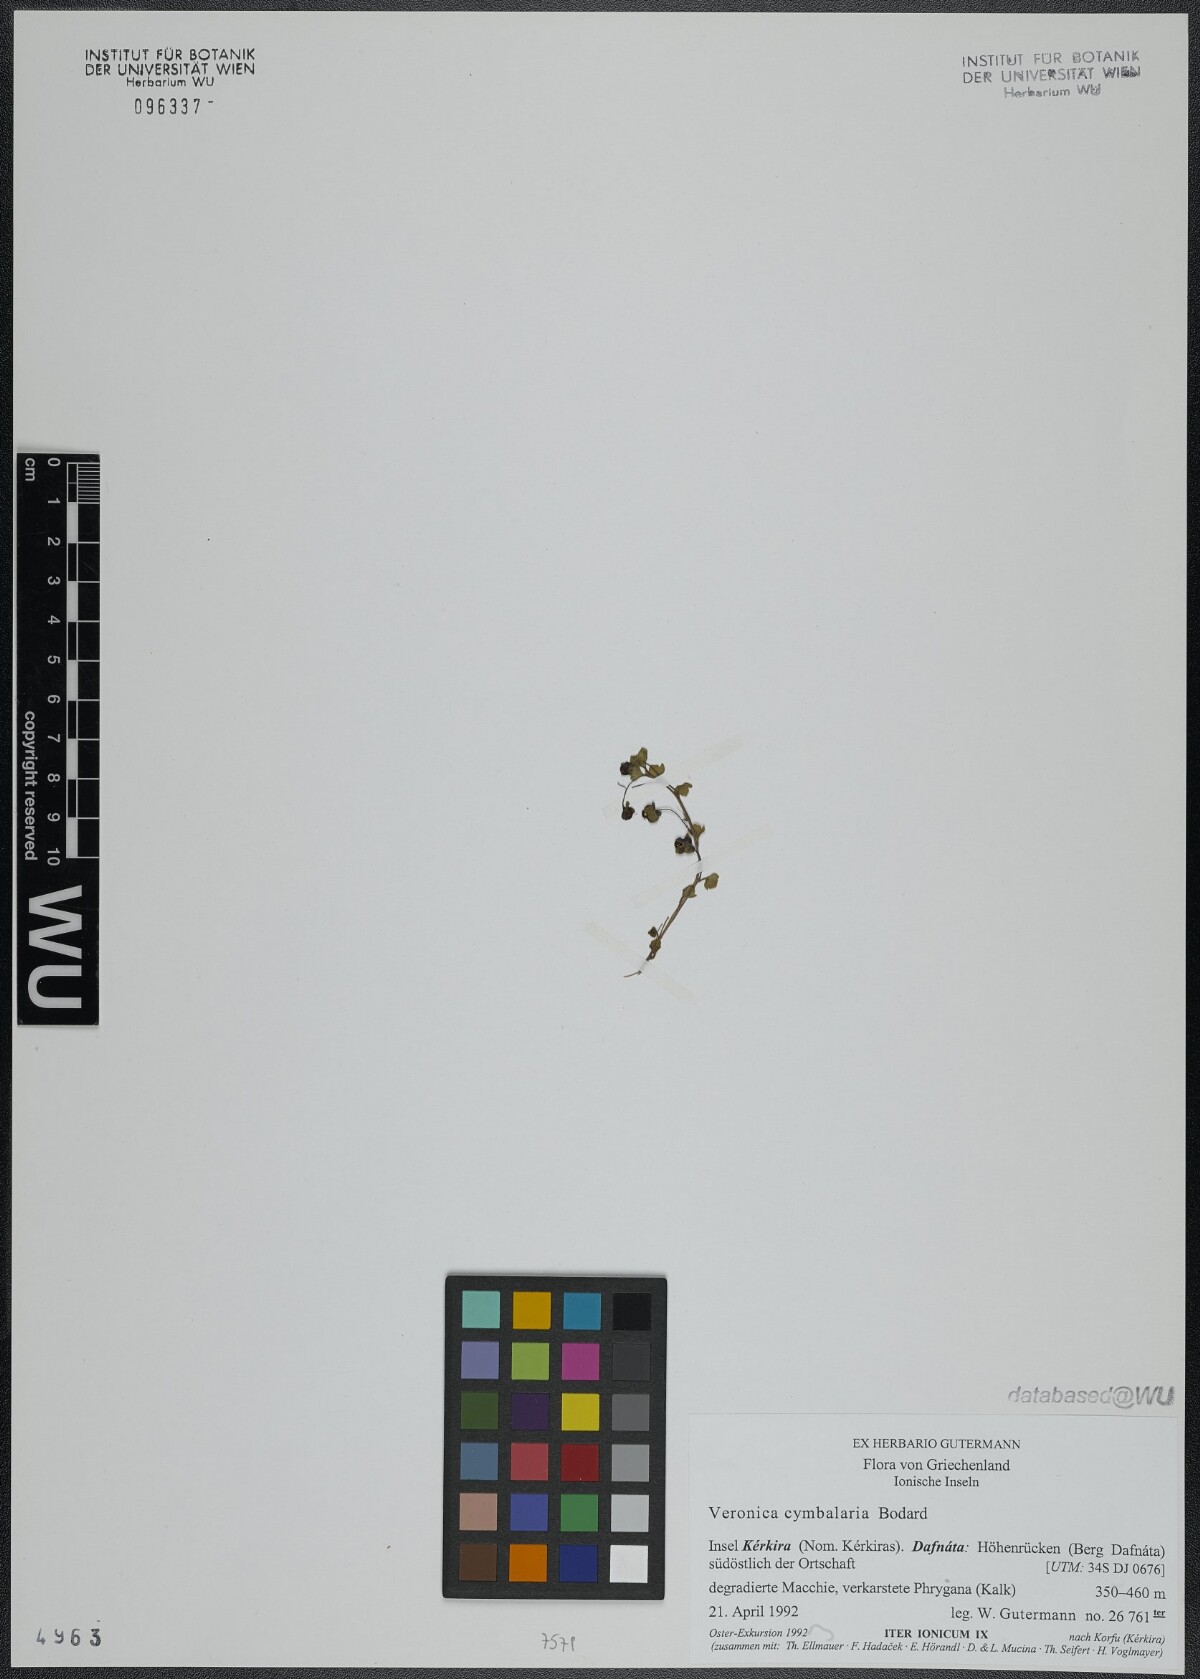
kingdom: Plantae
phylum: Tracheophyta
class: Magnoliopsida
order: Lamiales
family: Plantaginaceae
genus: Veronica
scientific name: Veronica cymbalaria
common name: Pale speedwell
